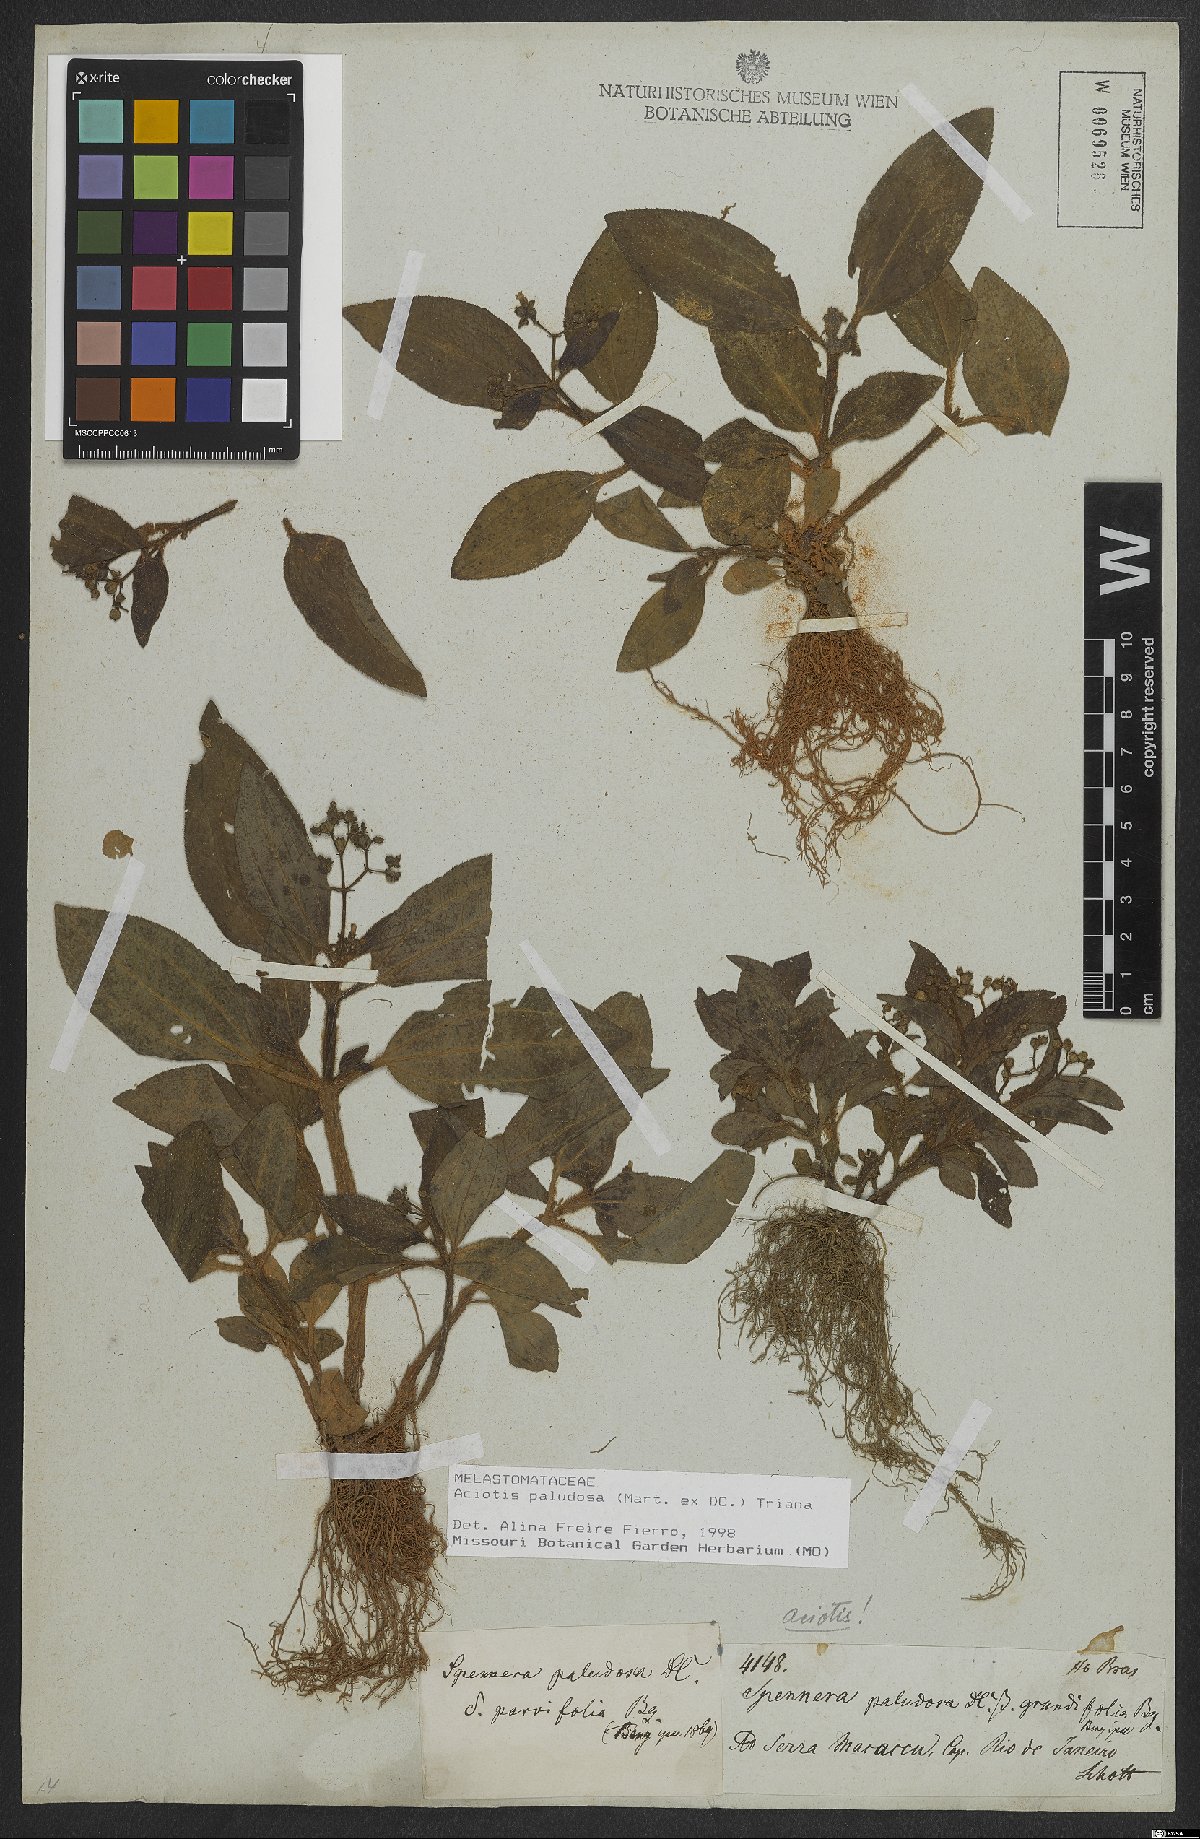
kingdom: Plantae
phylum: Tracheophyta
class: Magnoliopsida
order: Myrtales
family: Melastomataceae
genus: Aciotis
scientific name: Aciotis paludosa
